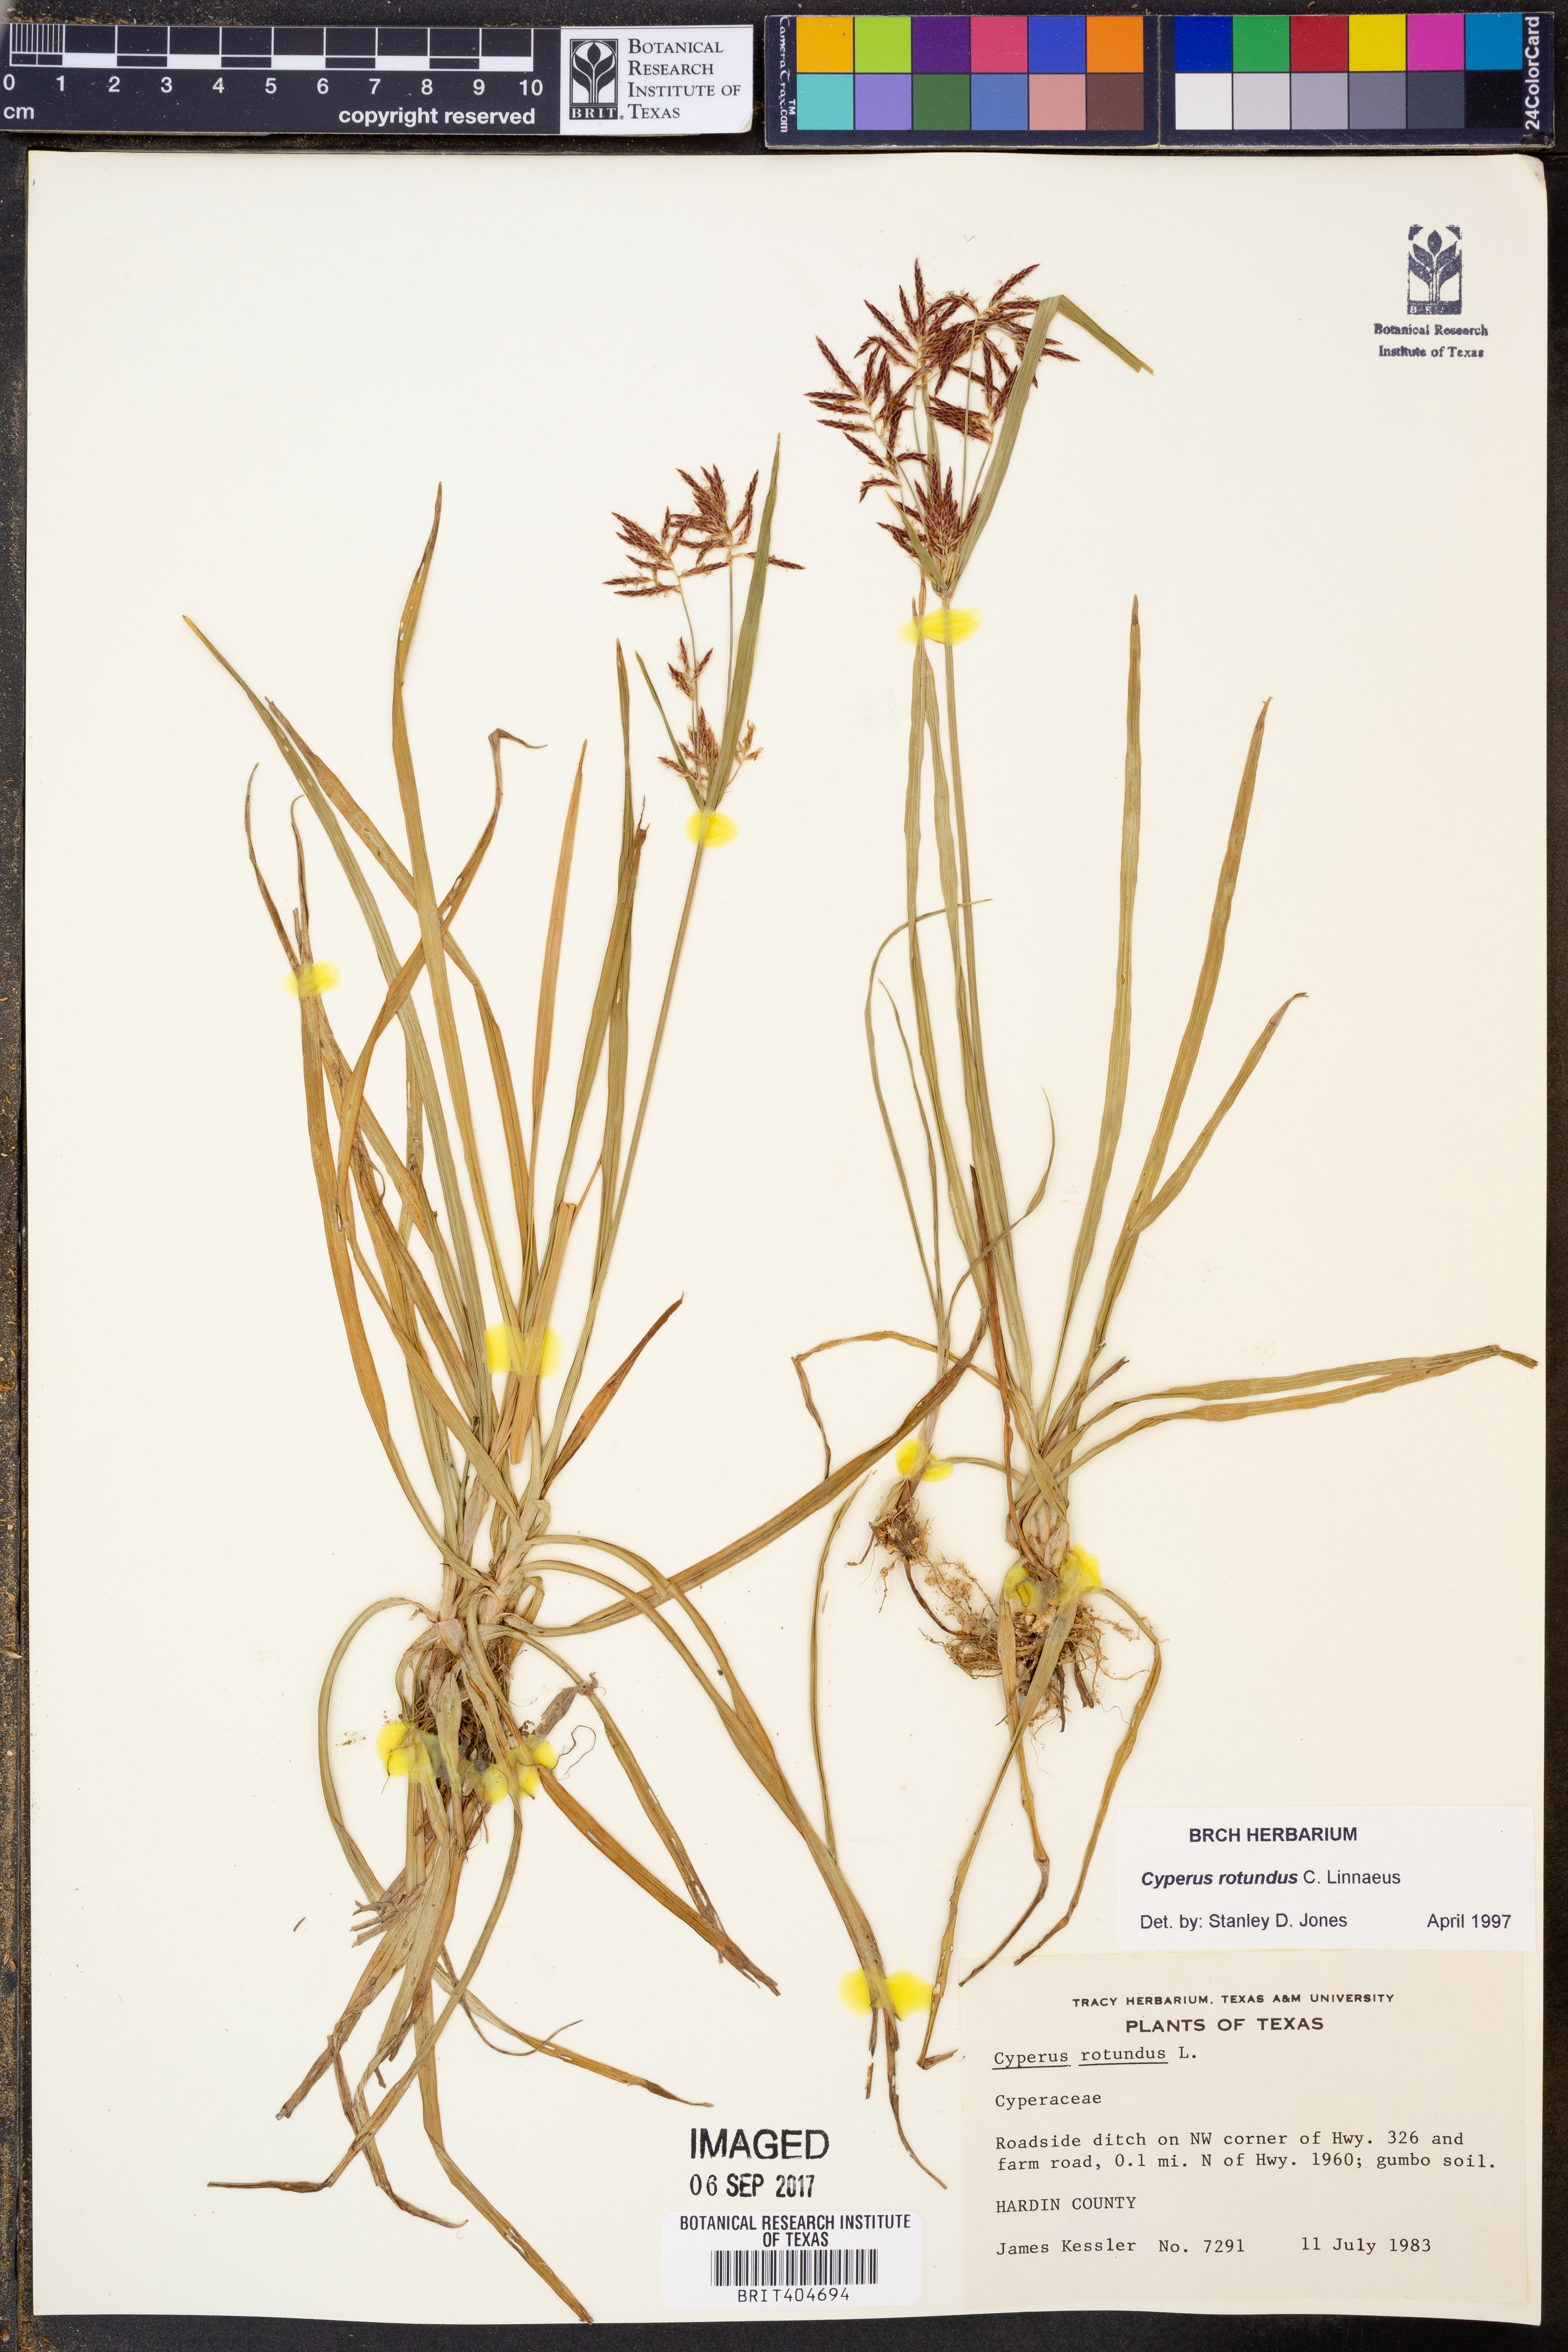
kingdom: Plantae
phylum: Tracheophyta
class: Liliopsida
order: Poales
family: Cyperaceae
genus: Cyperus
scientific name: Cyperus rotundus
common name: Nutgrass
